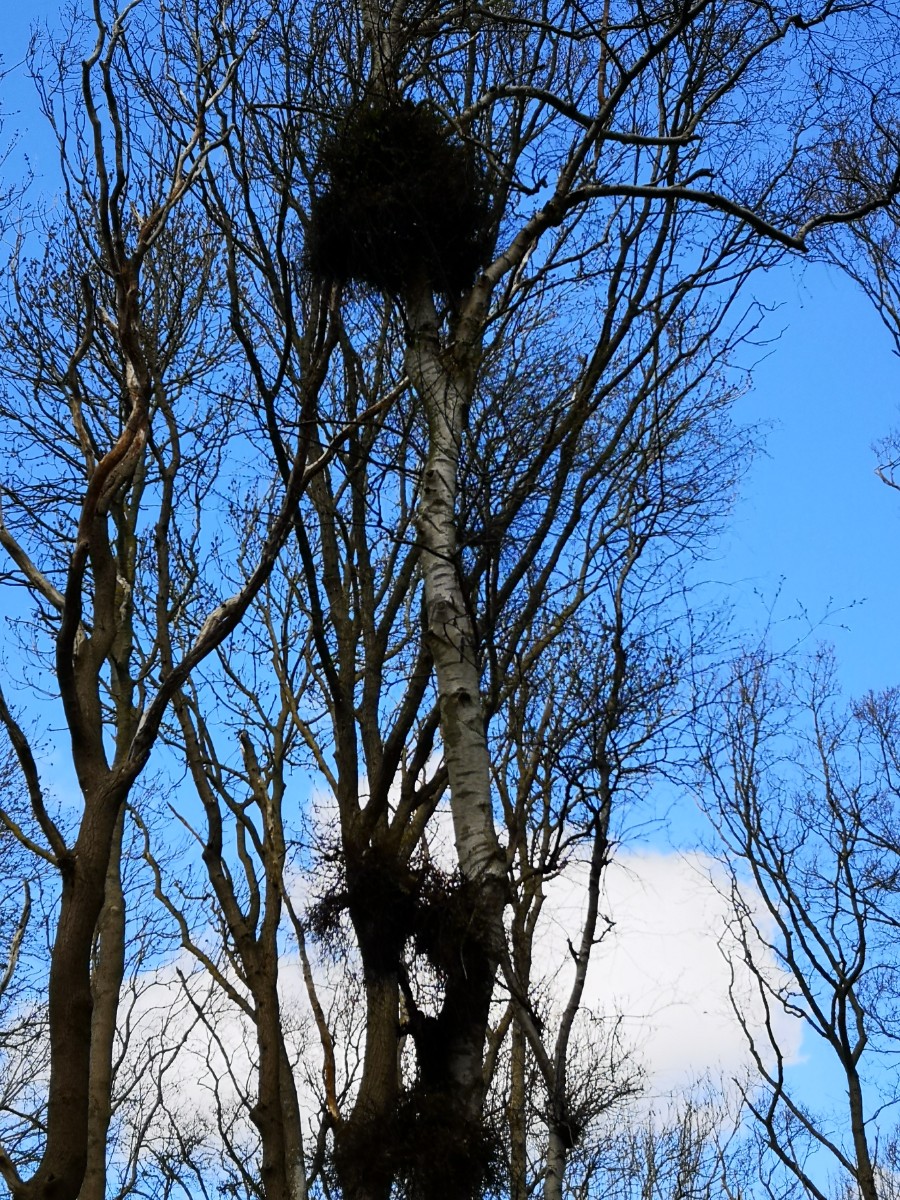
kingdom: Fungi
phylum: Ascomycota
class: Taphrinomycetes
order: Taphrinales
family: Taphrinaceae
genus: Taphrina
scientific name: Taphrina betulina
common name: hekse-sækdug
